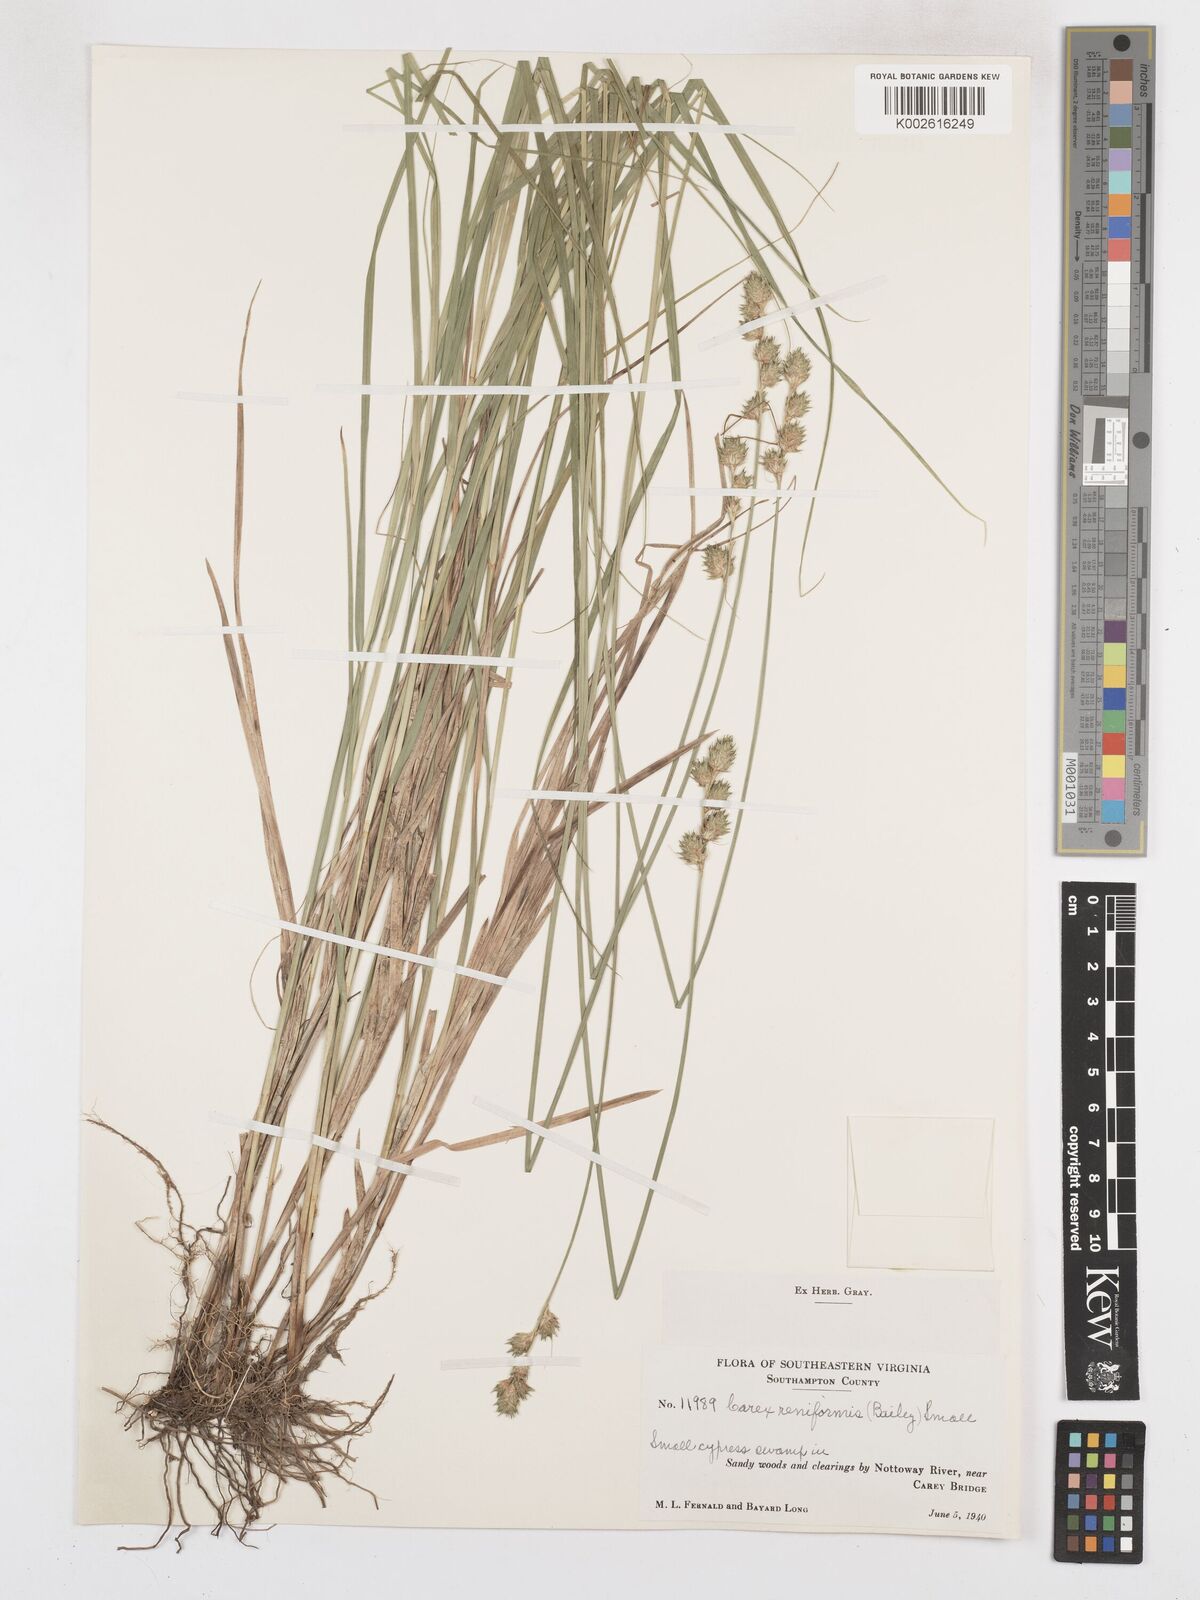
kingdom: Plantae
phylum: Tracheophyta
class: Liliopsida
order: Poales
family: Cyperaceae
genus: Carex
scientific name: Carex reniformis
